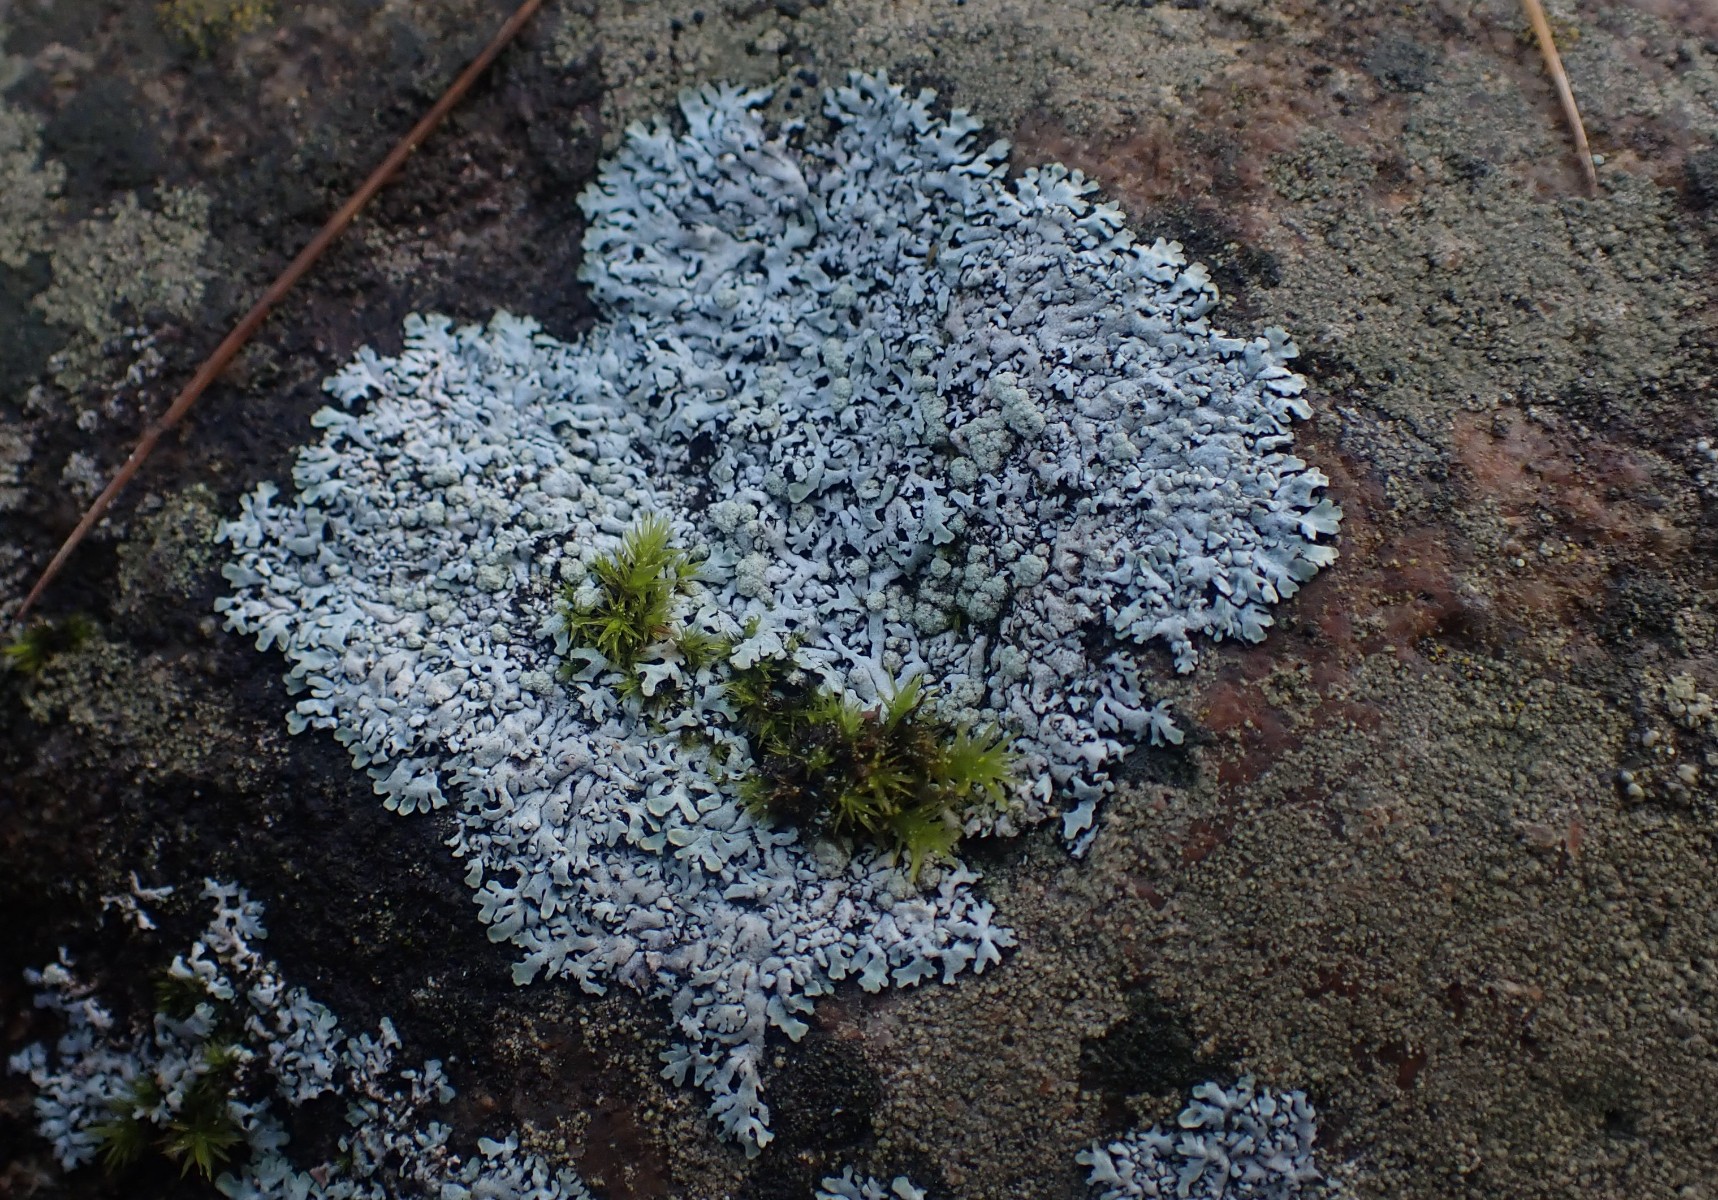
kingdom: Fungi
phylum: Ascomycota
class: Lecanoromycetes
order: Caliciales
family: Physciaceae
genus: Physcia
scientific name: Physcia caesia
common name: blågrå rosetlav
